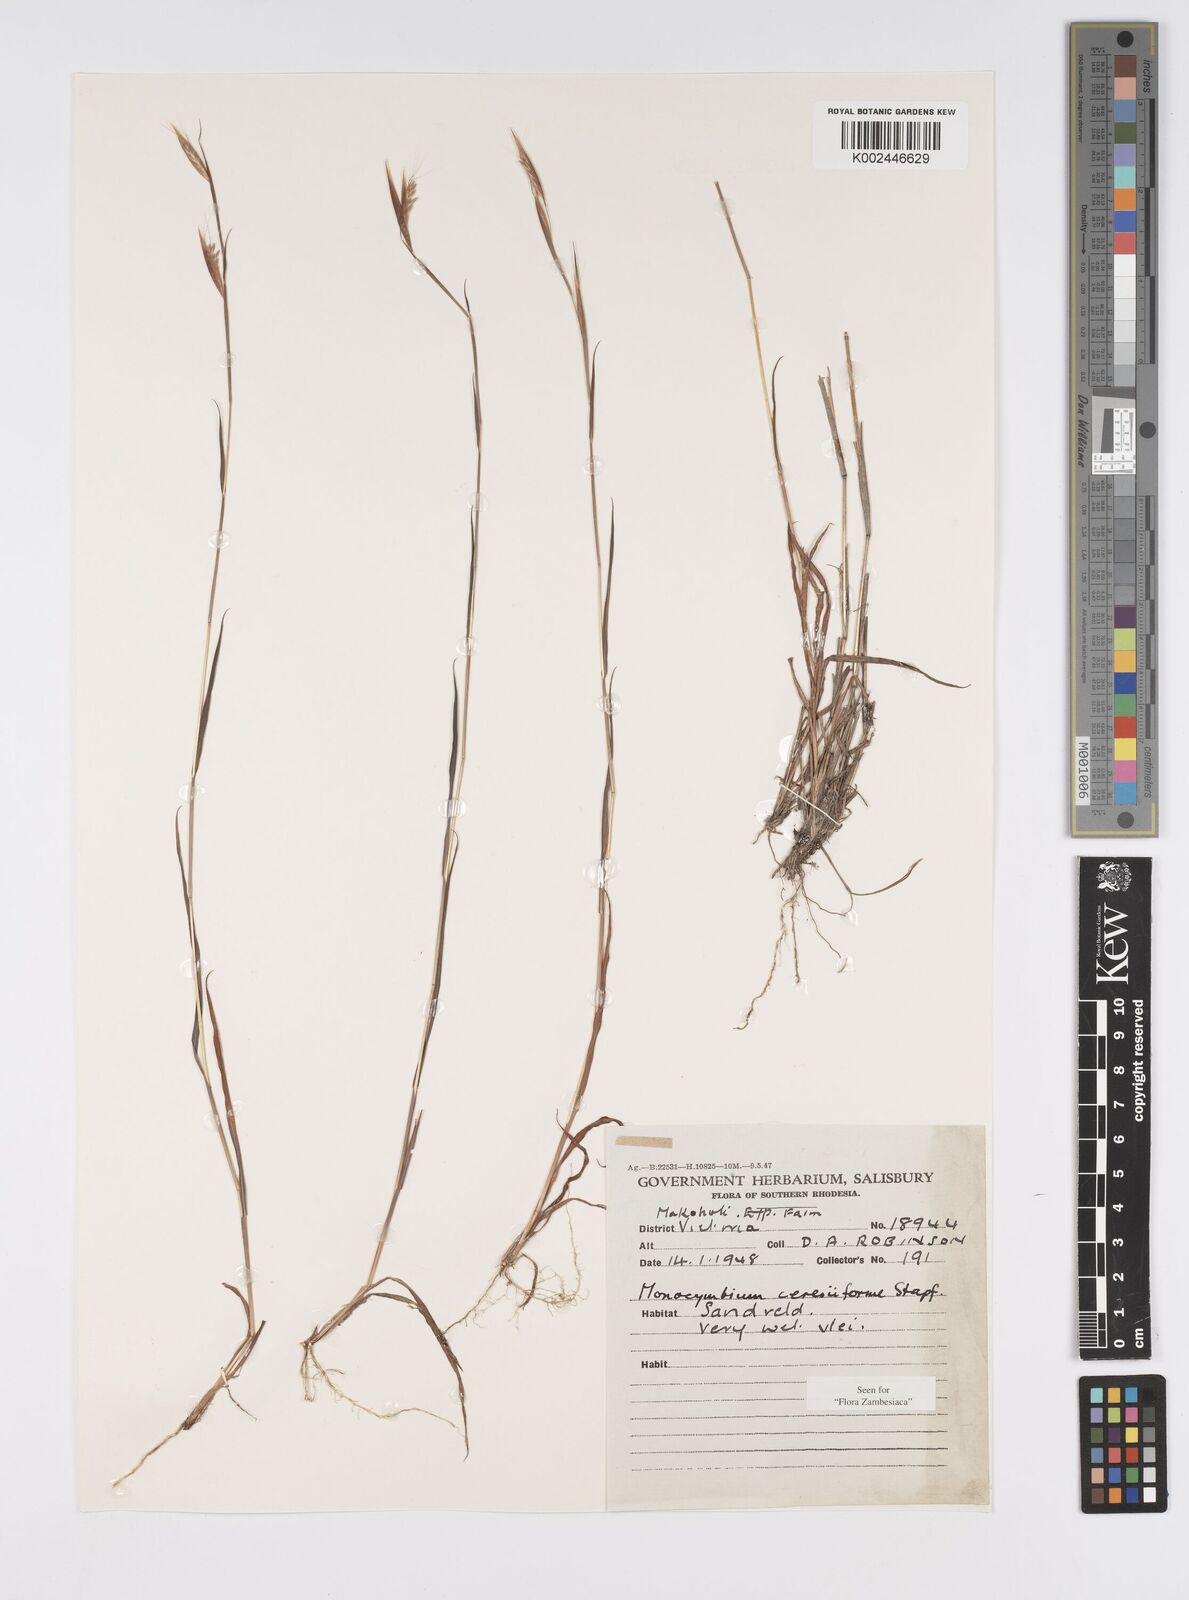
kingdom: Plantae
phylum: Tracheophyta
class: Liliopsida
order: Poales
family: Poaceae
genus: Monocymbium
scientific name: Monocymbium ceresiiforme
